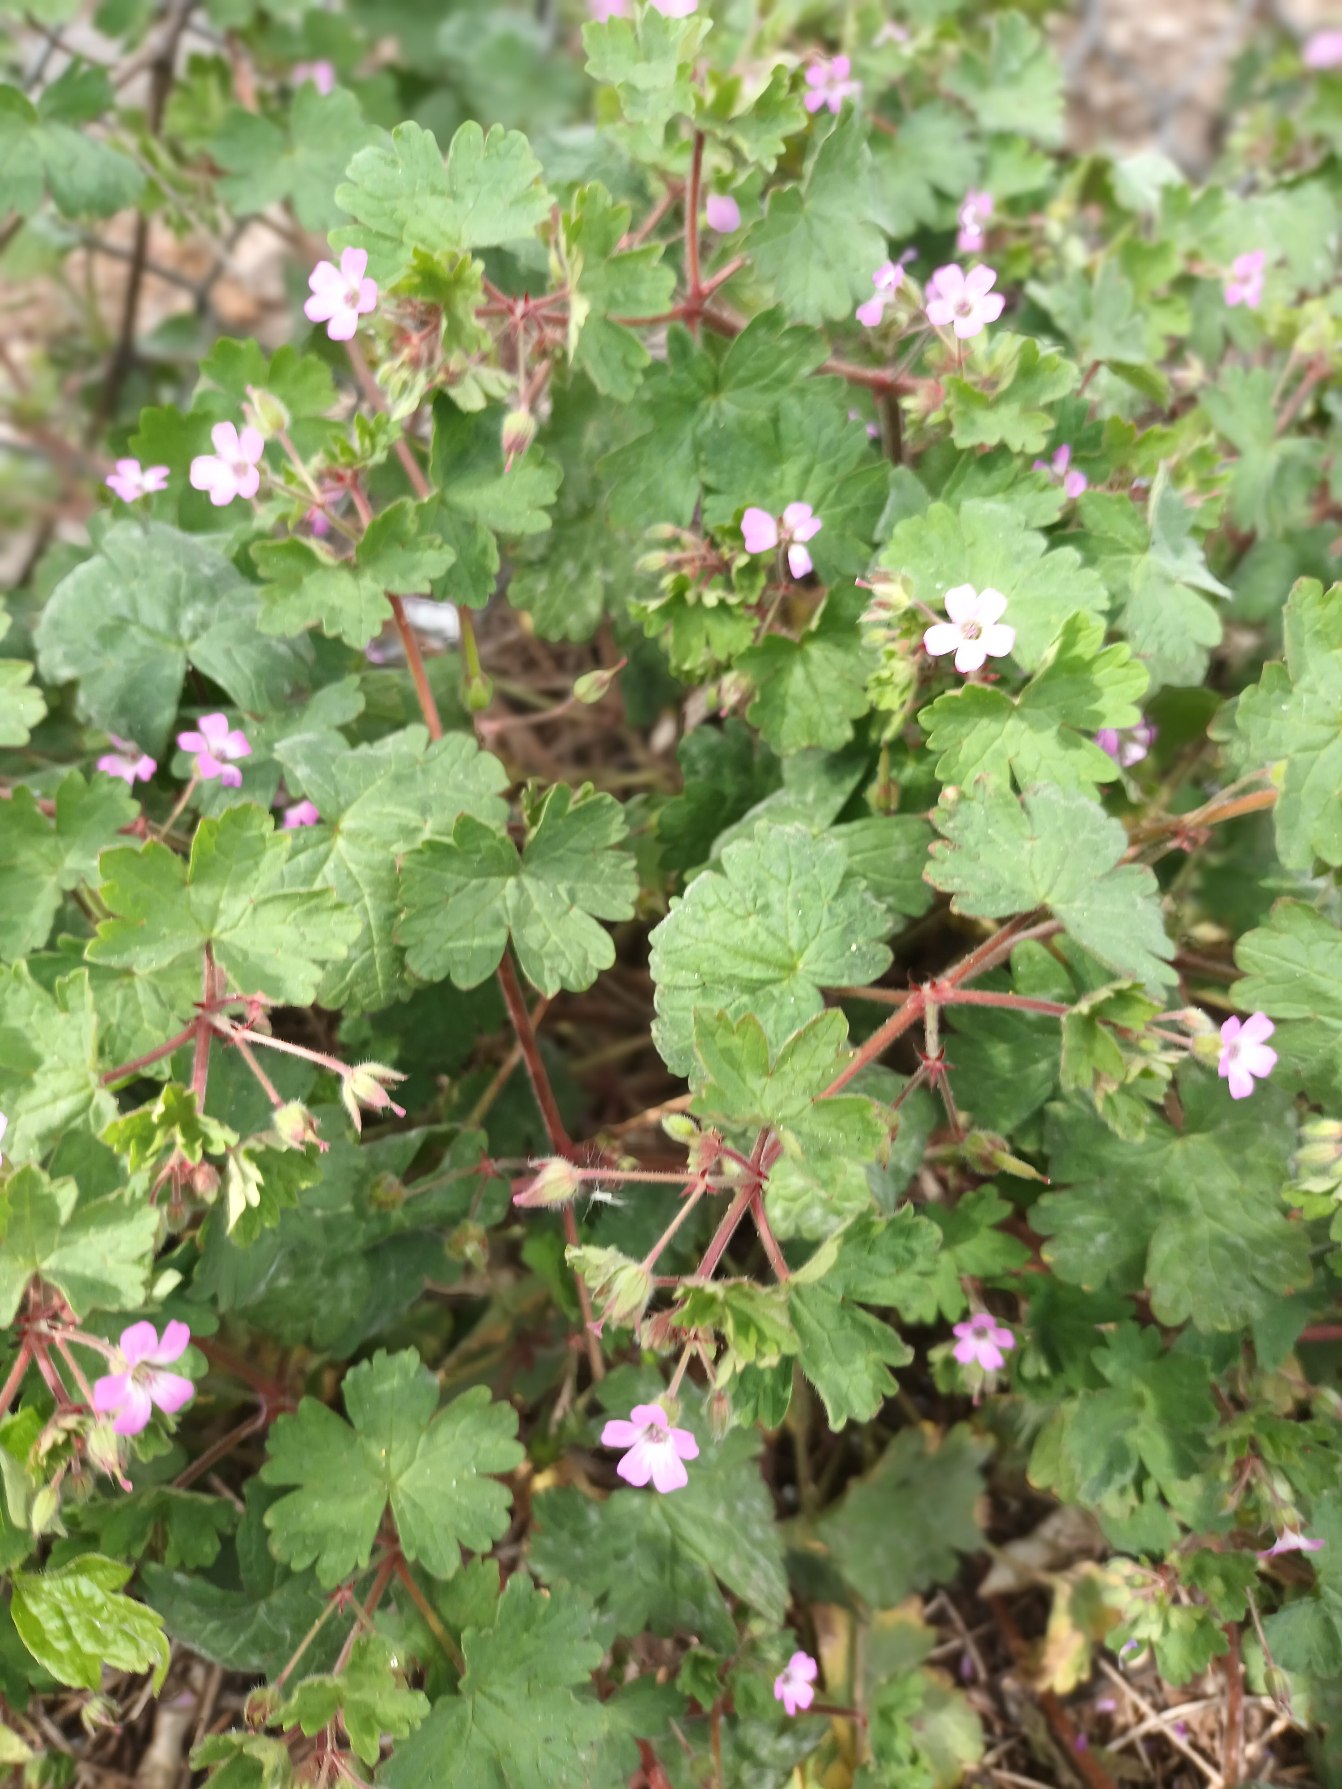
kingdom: Plantae
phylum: Tracheophyta
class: Magnoliopsida
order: Geraniales
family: Geraniaceae
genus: Geranium
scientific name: Geranium rotundifolium
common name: Rundbladet storkenæb
